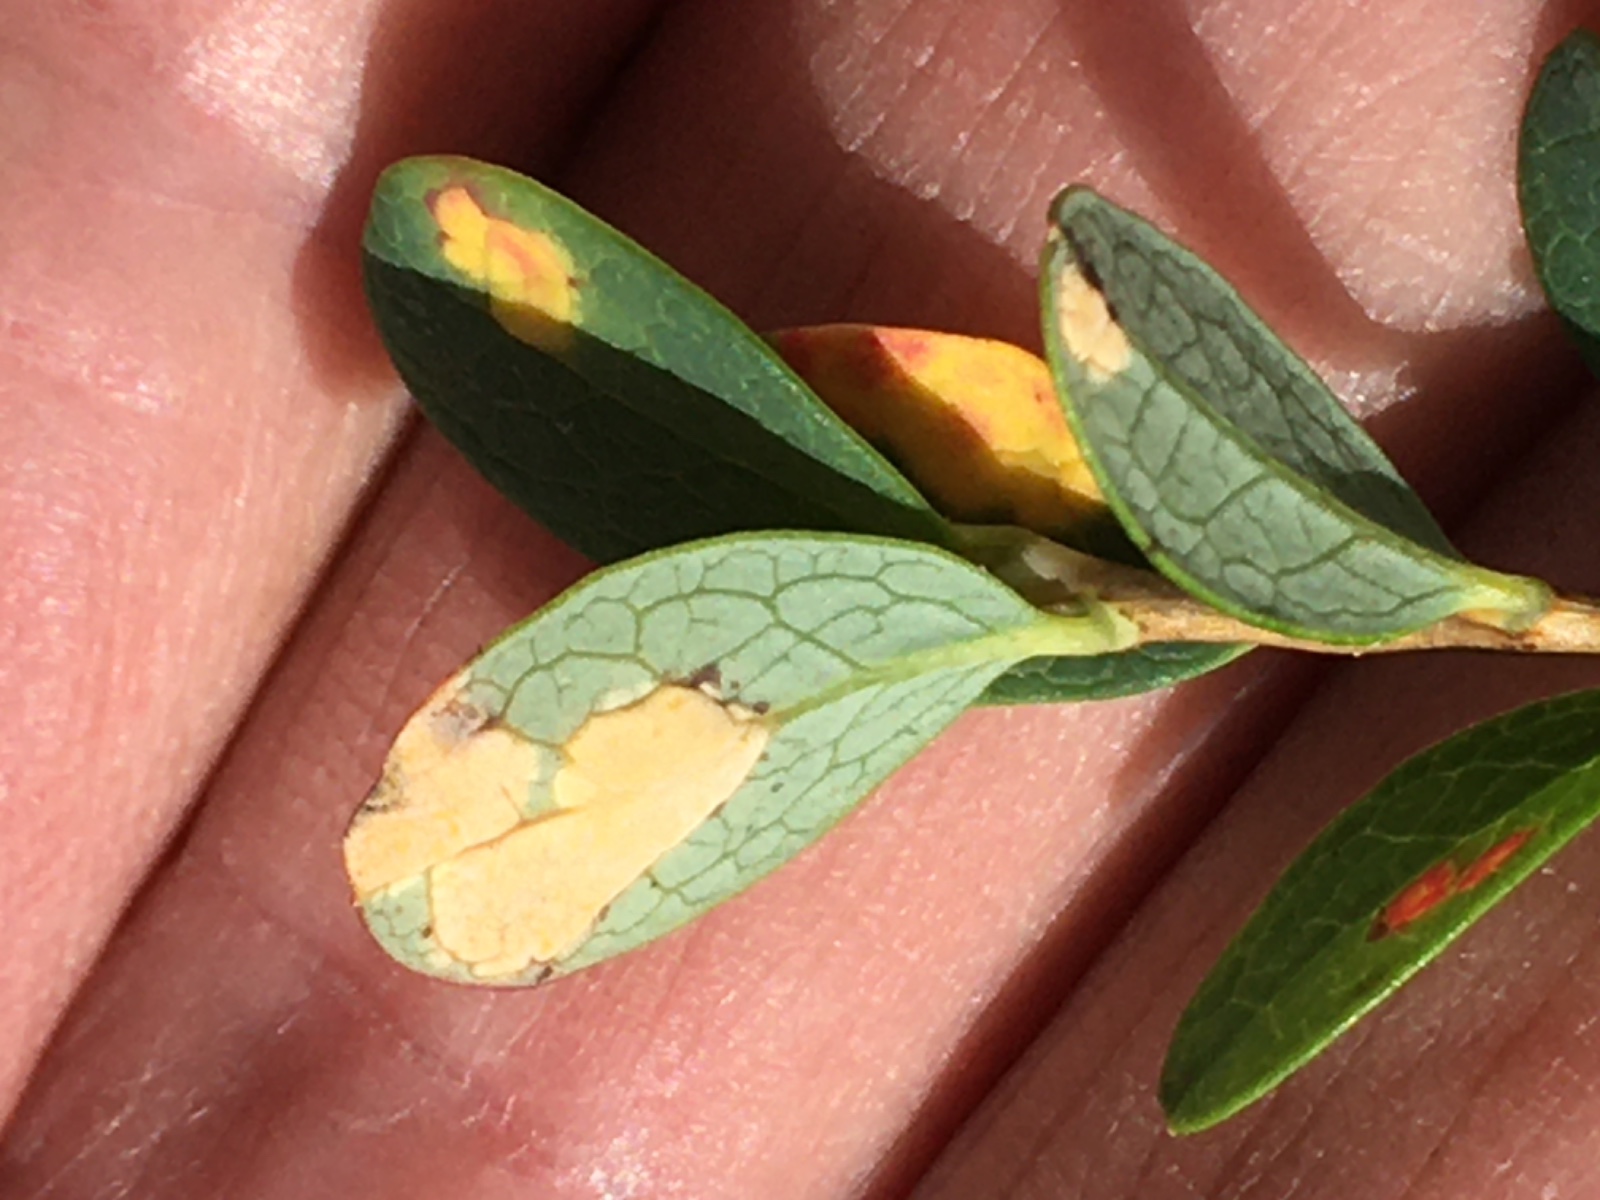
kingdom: Fungi
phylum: Basidiomycota
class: Exobasidiomycetes
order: Exobasidiales
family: Exobasidiaceae
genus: Exobasidium
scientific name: Exobasidium pachysporum
